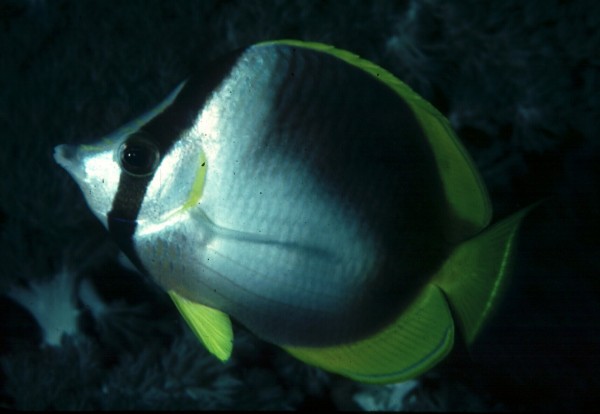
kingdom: Animalia
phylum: Chordata
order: Perciformes
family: Chaetodontidae
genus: Chaetodon
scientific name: Chaetodon leucopleura
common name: Somali butterflyfish
